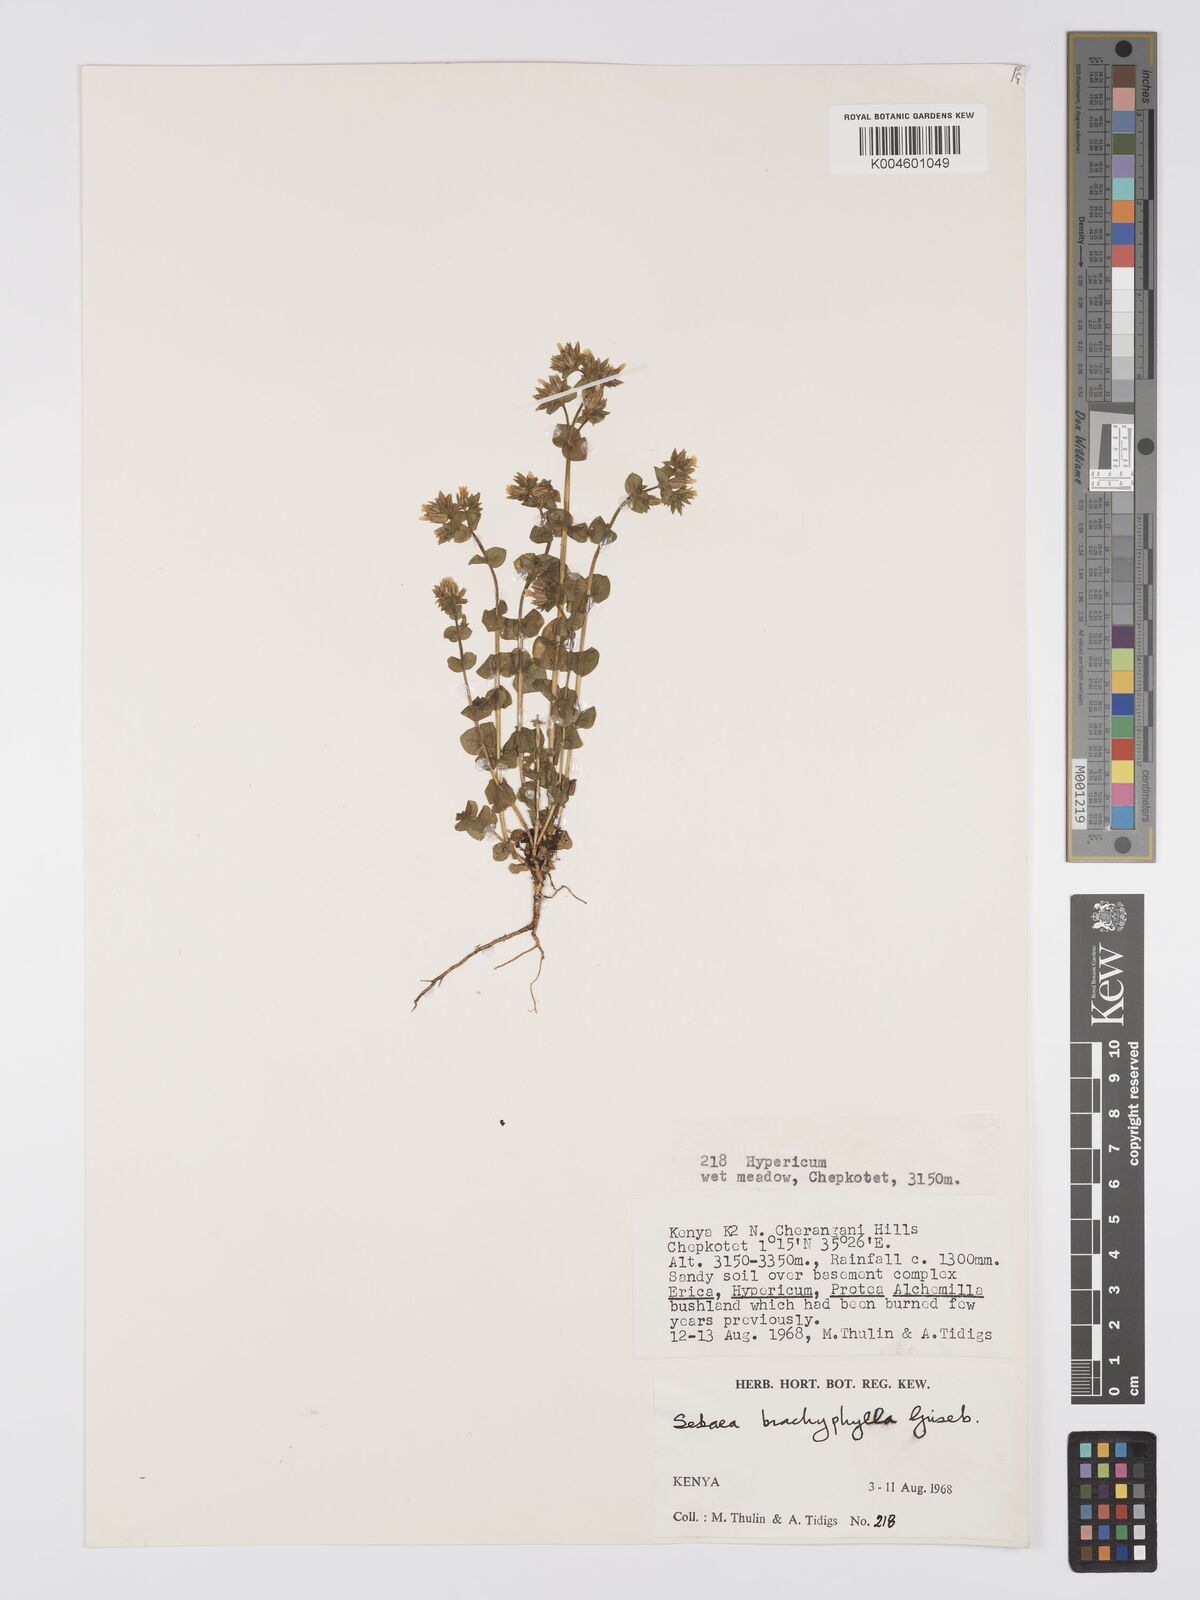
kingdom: Plantae
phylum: Tracheophyta
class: Magnoliopsida
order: Gentianales
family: Gentianaceae
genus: Sebaea
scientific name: Sebaea brachyphylla
